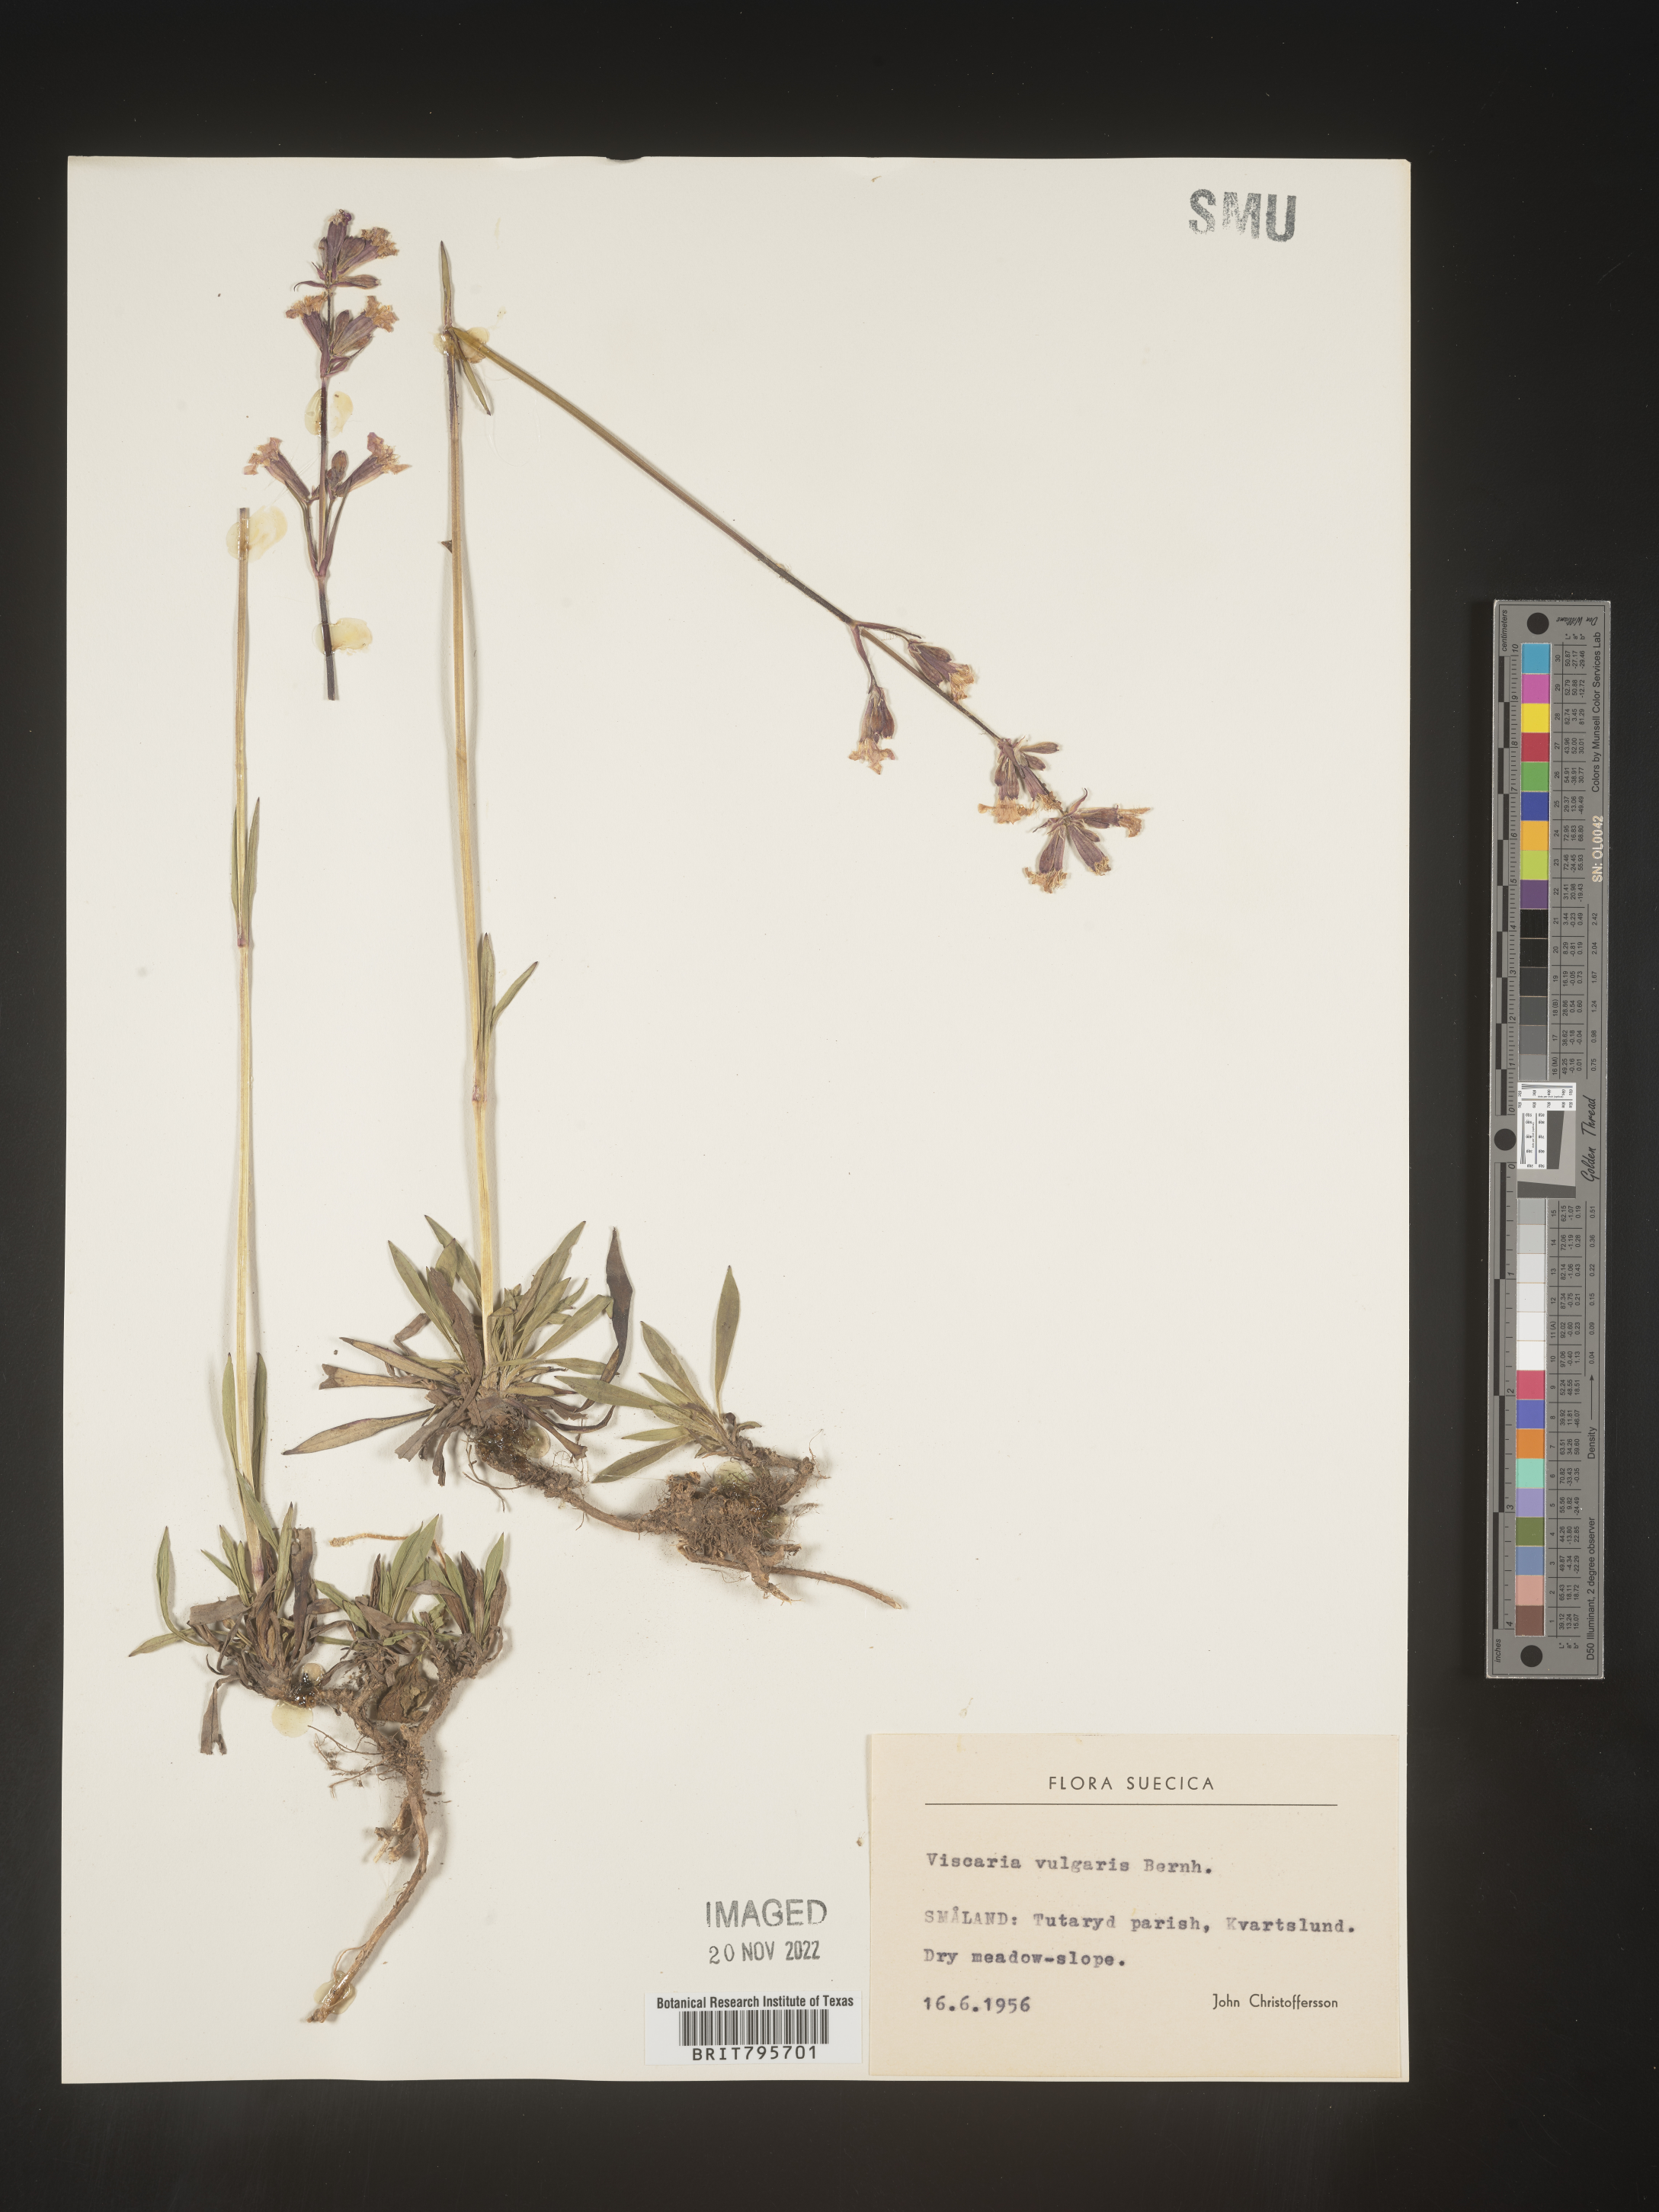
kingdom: Plantae
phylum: Tracheophyta
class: Magnoliopsida
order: Caryophyllales
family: Caryophyllaceae
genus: Viscaria
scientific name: Viscaria
